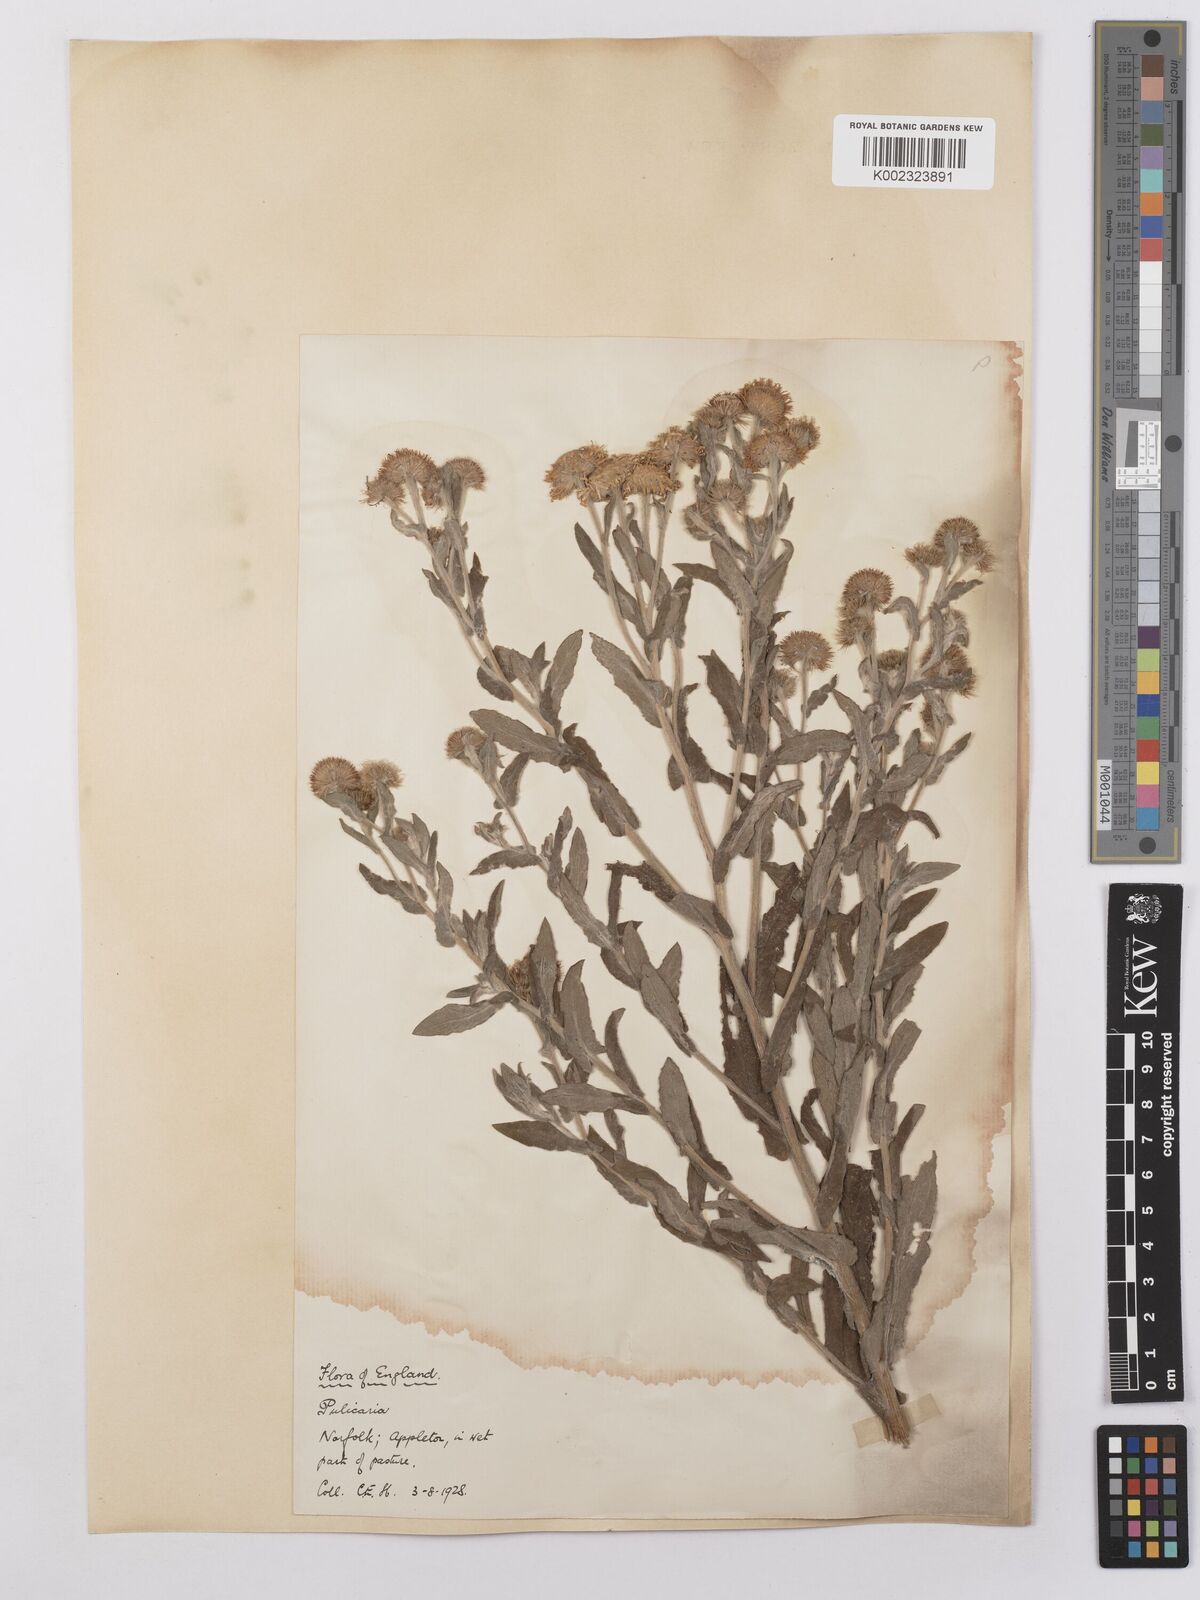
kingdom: Plantae
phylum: Tracheophyta
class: Magnoliopsida
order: Asterales
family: Asteraceae
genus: Pulicaria
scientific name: Pulicaria dysenterica
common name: Common fleabane
